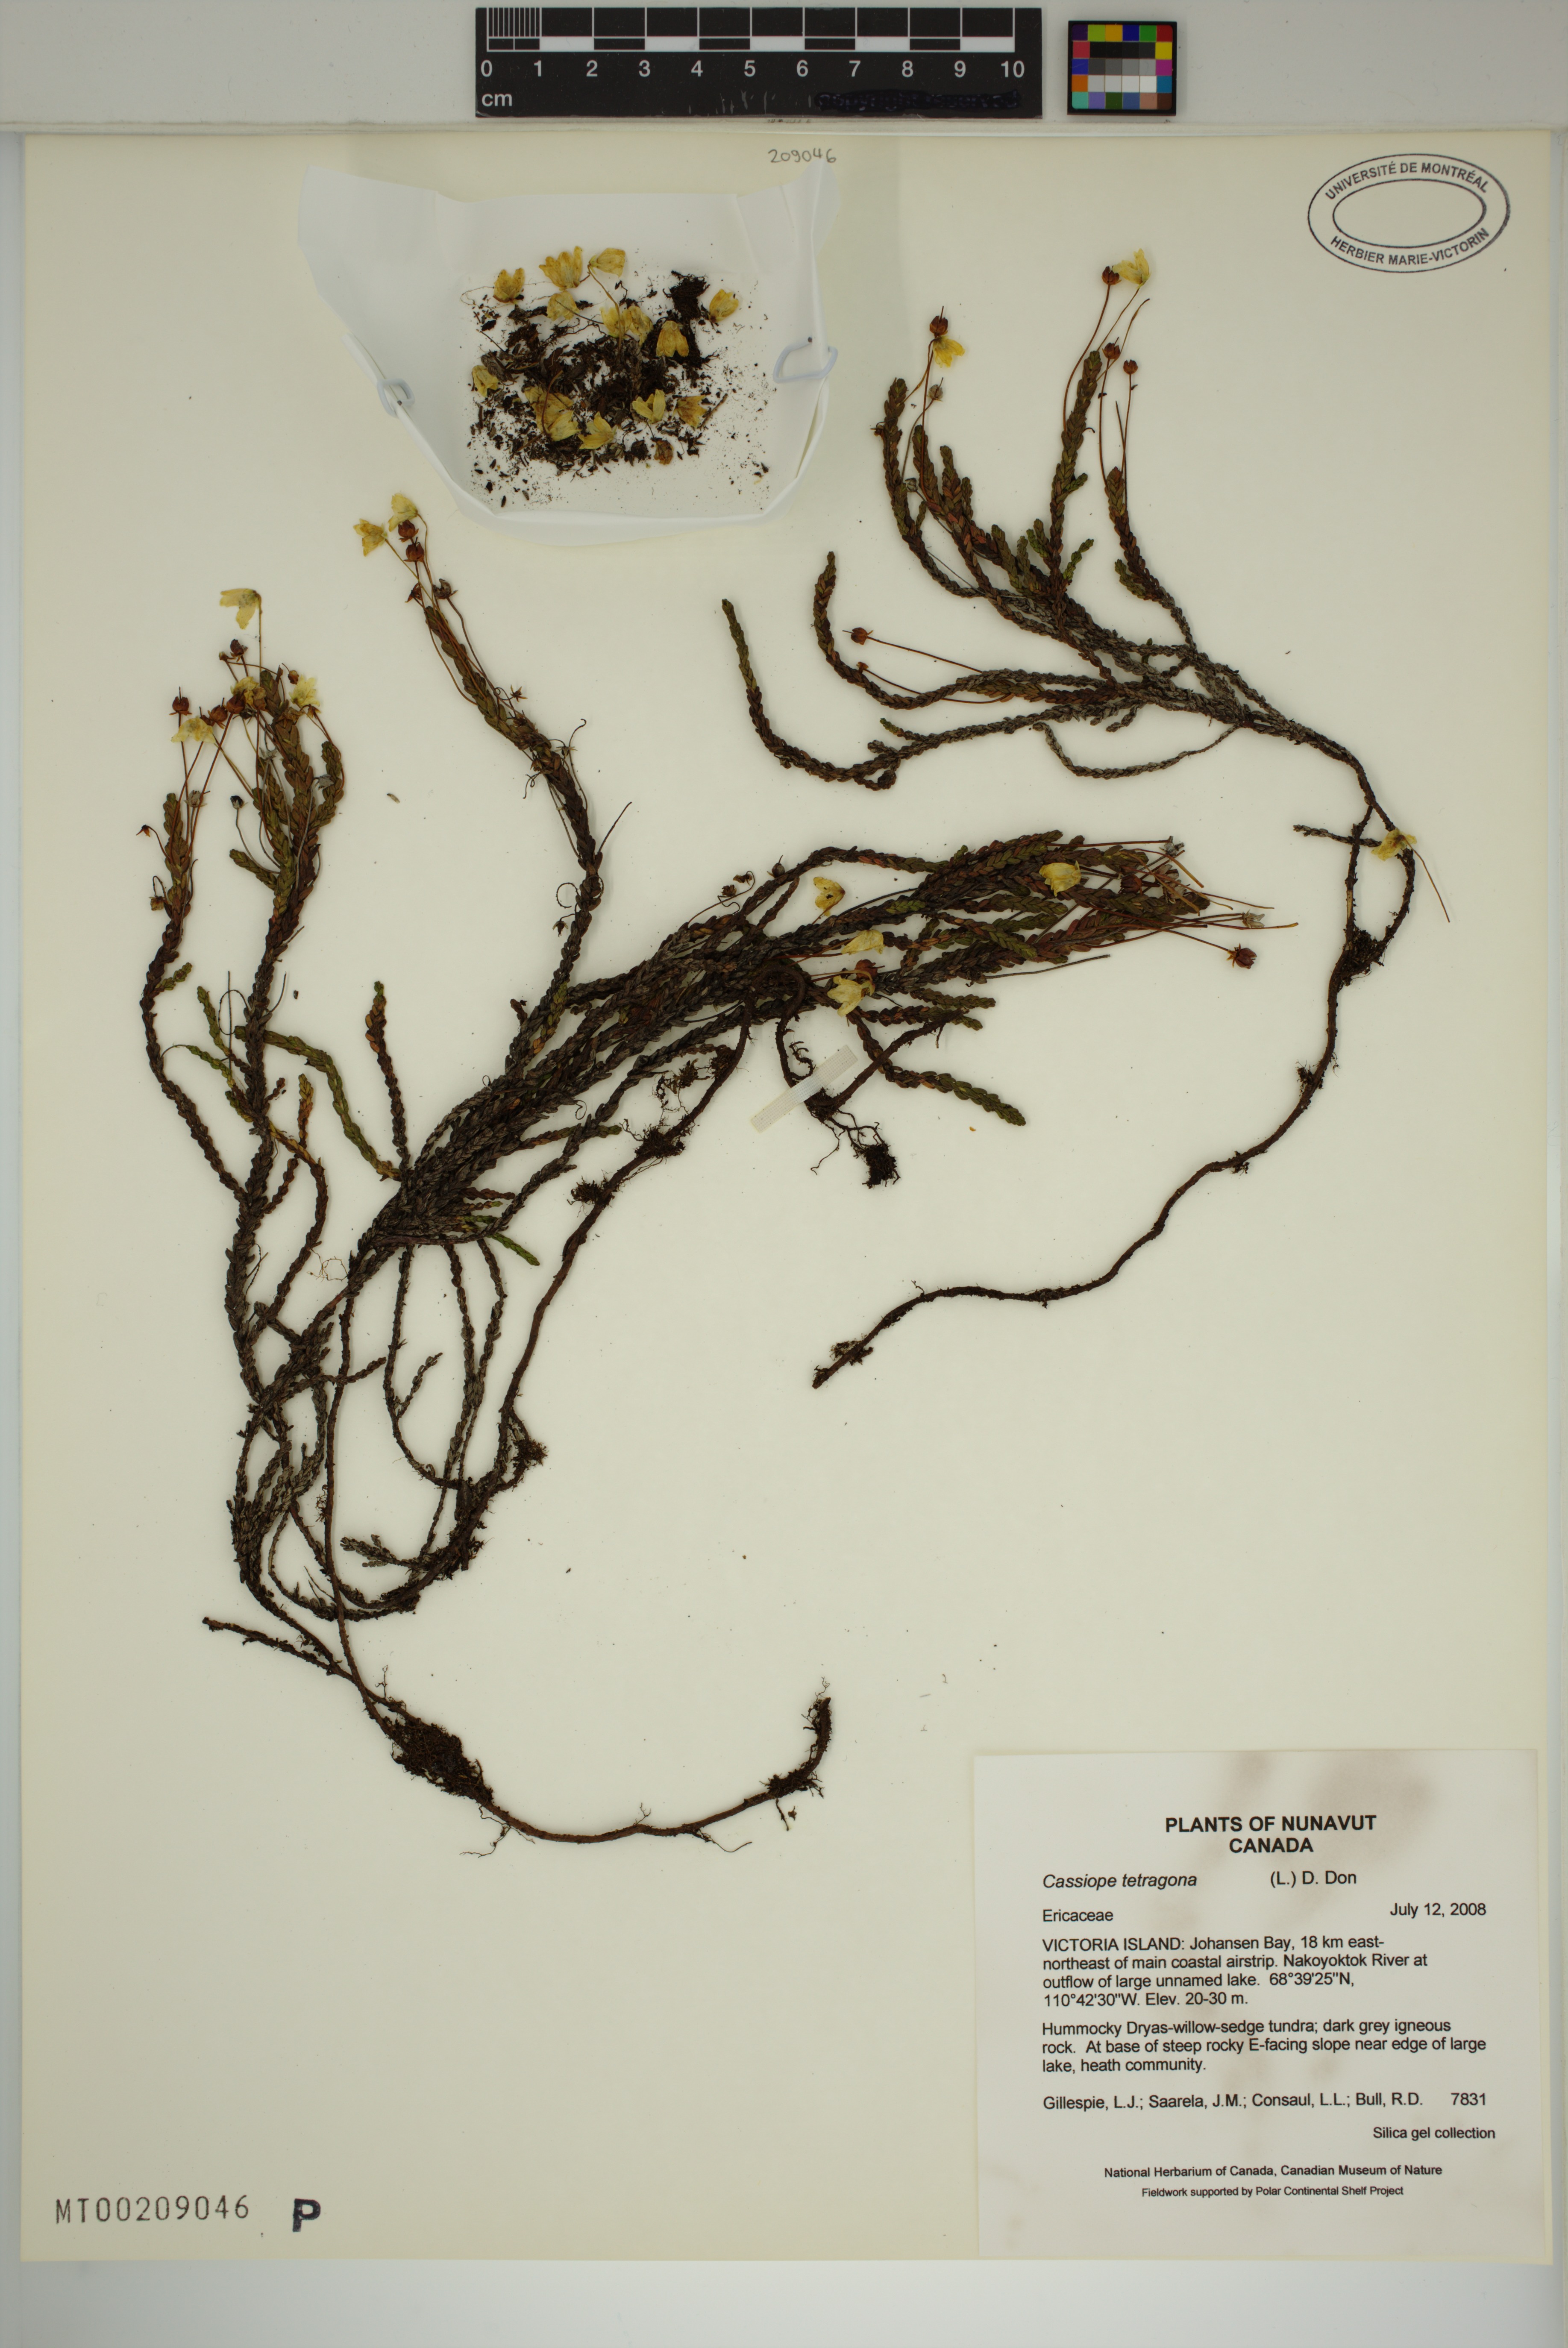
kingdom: Plantae
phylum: Tracheophyta
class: Magnoliopsida
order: Ericales
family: Ericaceae
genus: Cassiope
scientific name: Cassiope tetragona
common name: Arctic bell heather
